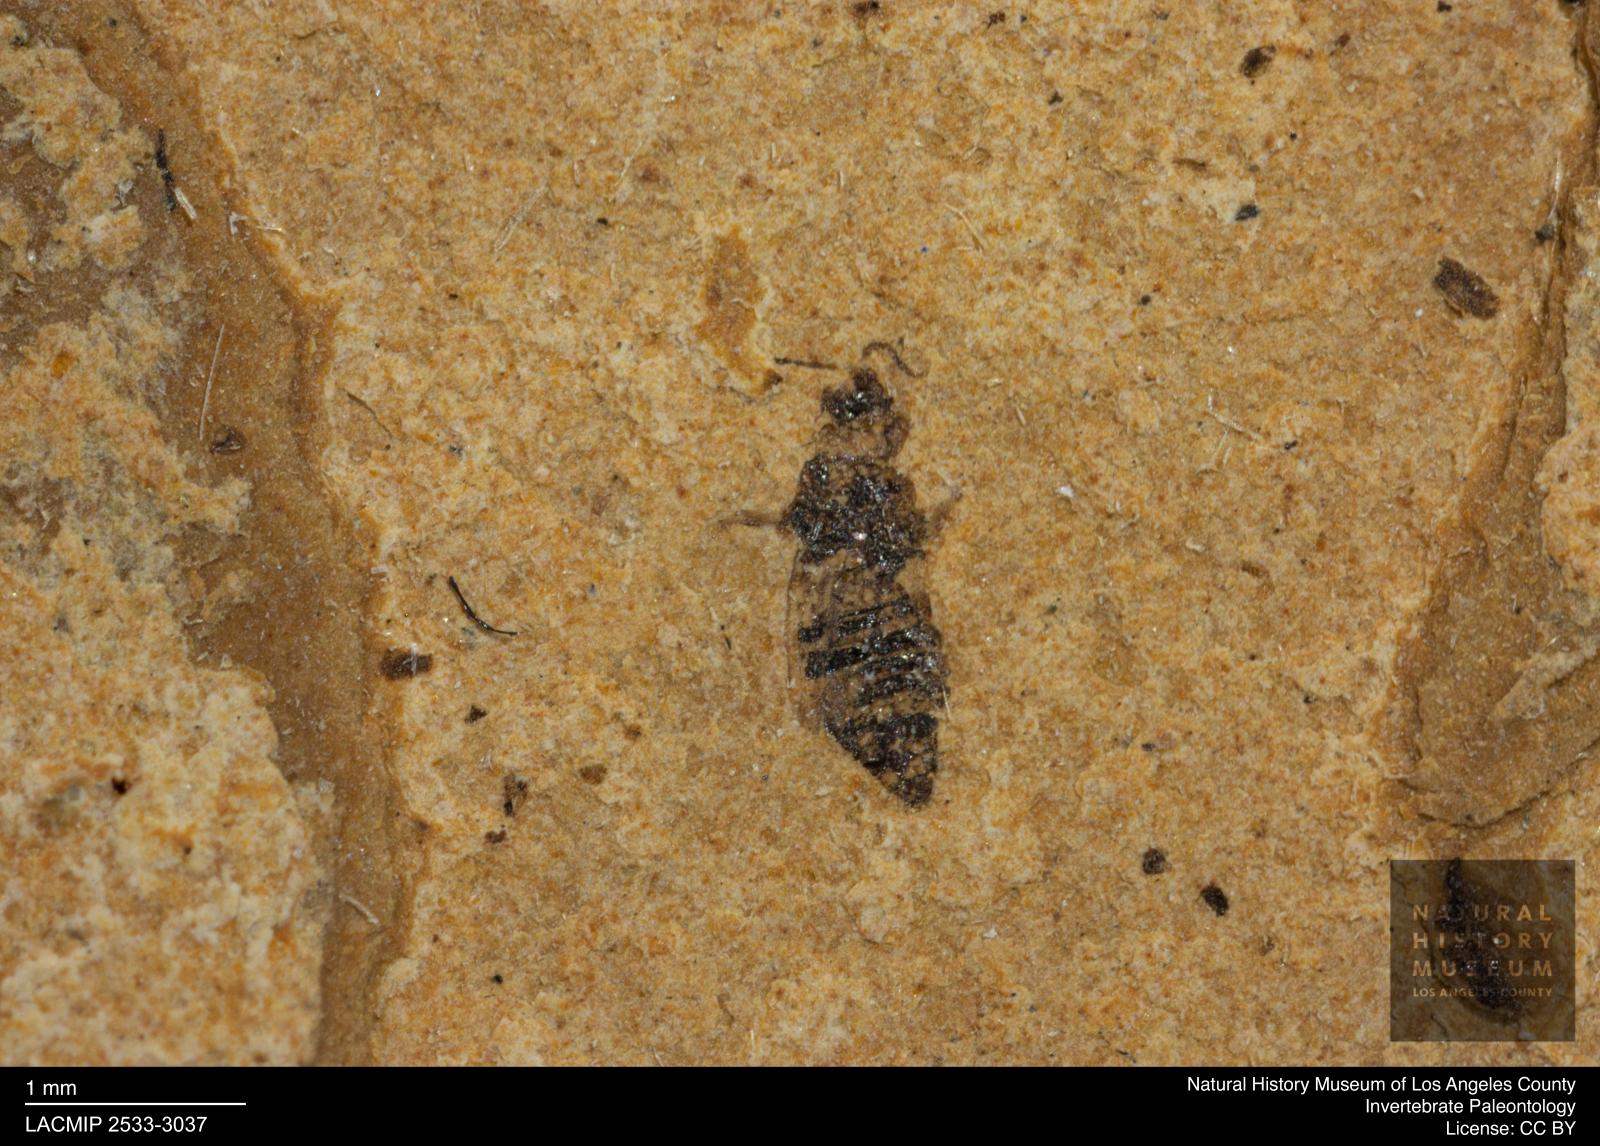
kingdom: Animalia
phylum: Arthropoda
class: Insecta
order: Thysanoptera
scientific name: Thysanoptera
